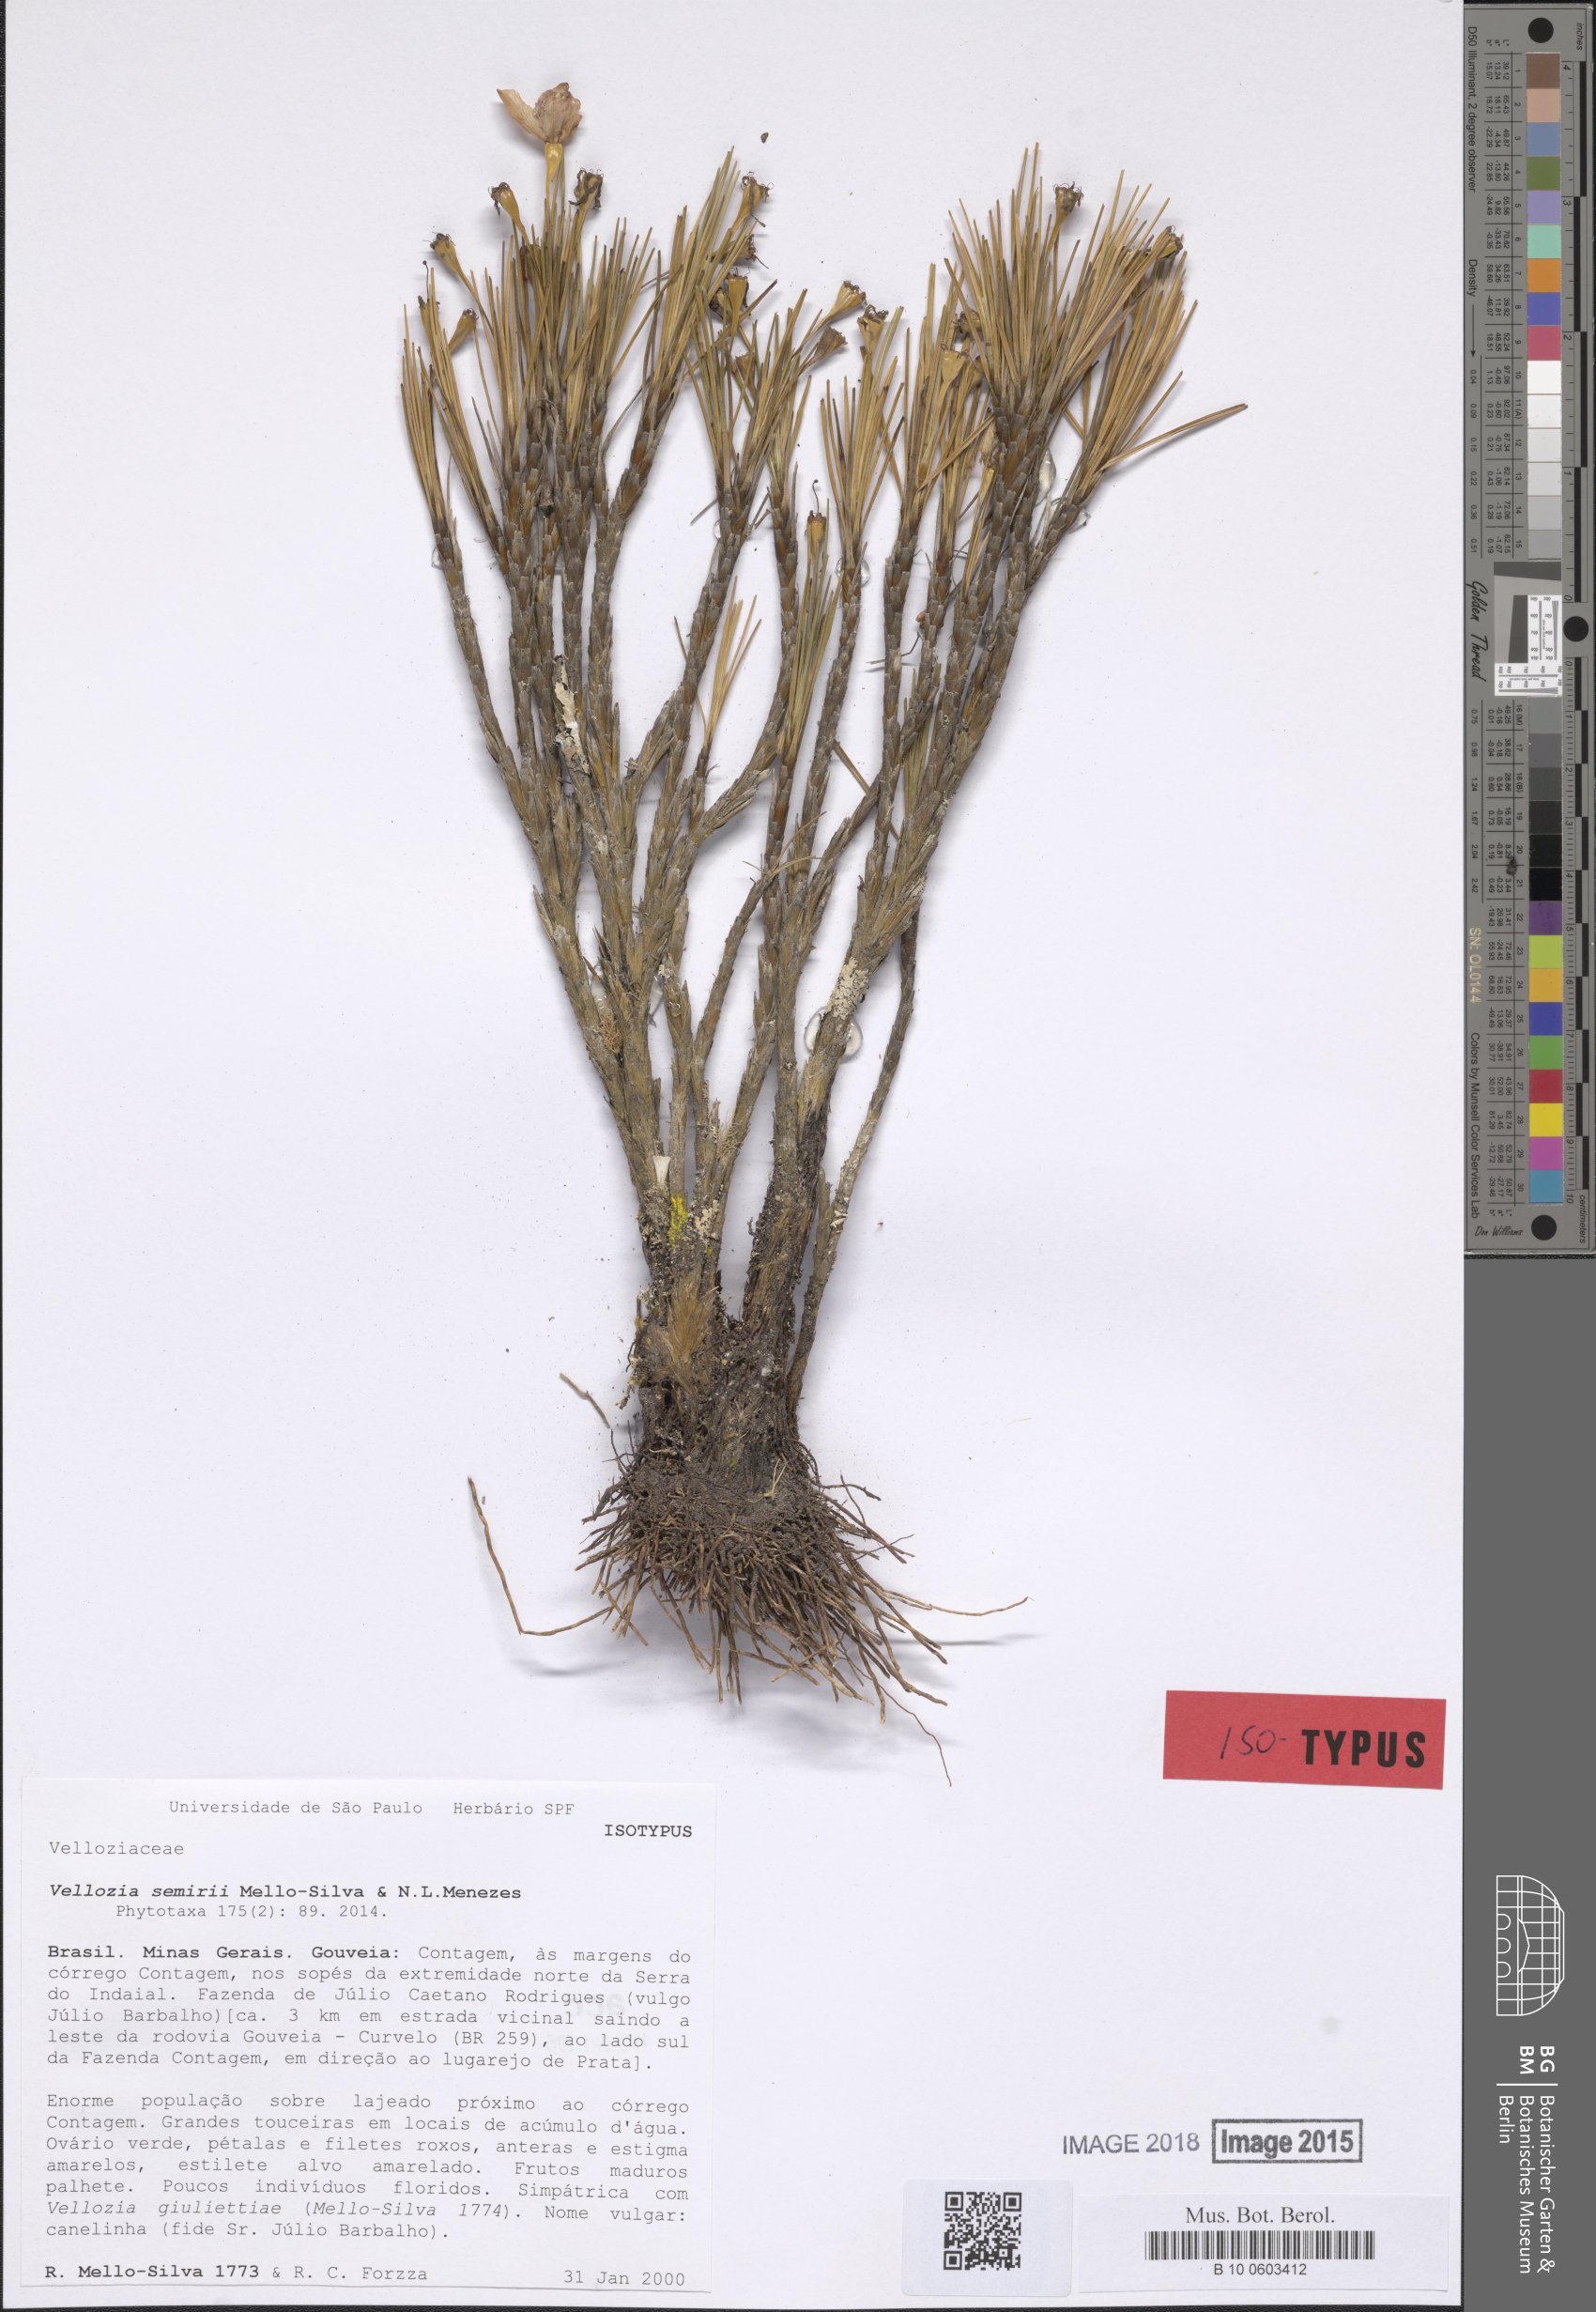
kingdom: Plantae
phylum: Tracheophyta
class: Liliopsida
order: Pandanales
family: Velloziaceae
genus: Vellozia
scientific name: Vellozia semirii
